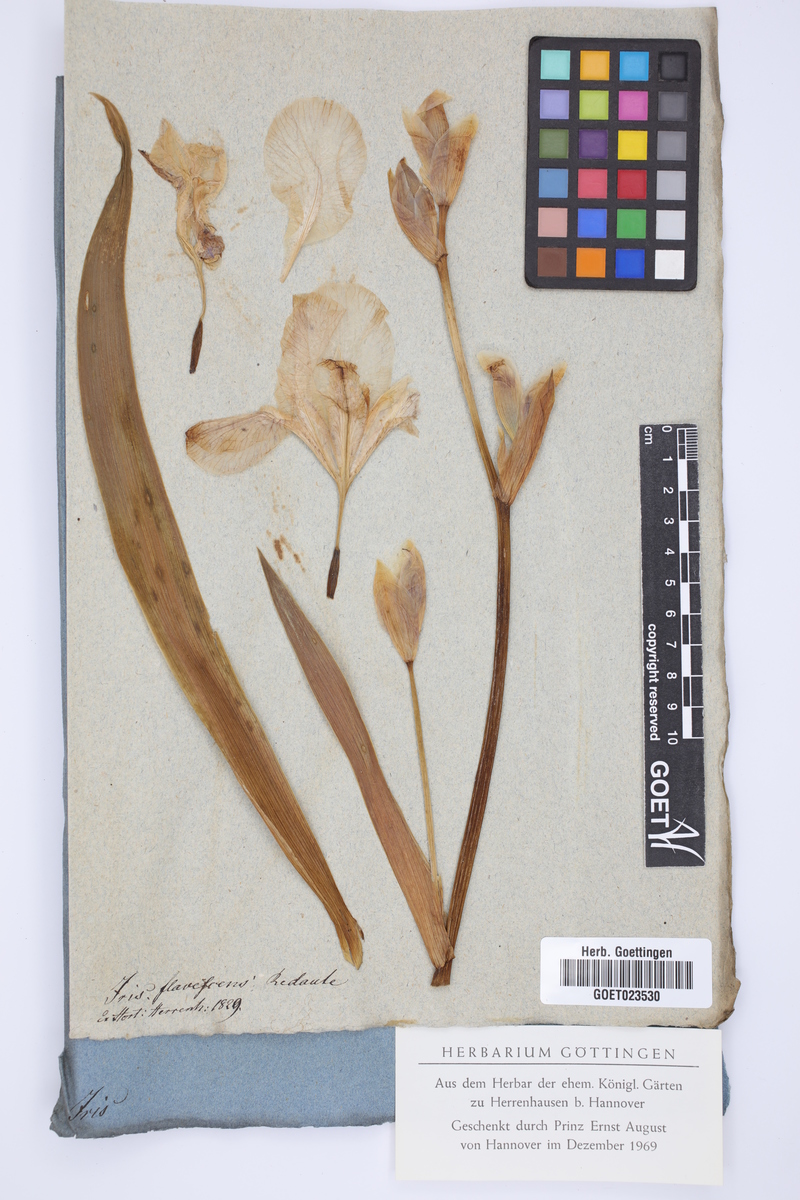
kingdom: Plantae
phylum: Tracheophyta
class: Liliopsida
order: Asparagales
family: Iridaceae
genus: Iris
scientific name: Iris variegata
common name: Hungarian iris
